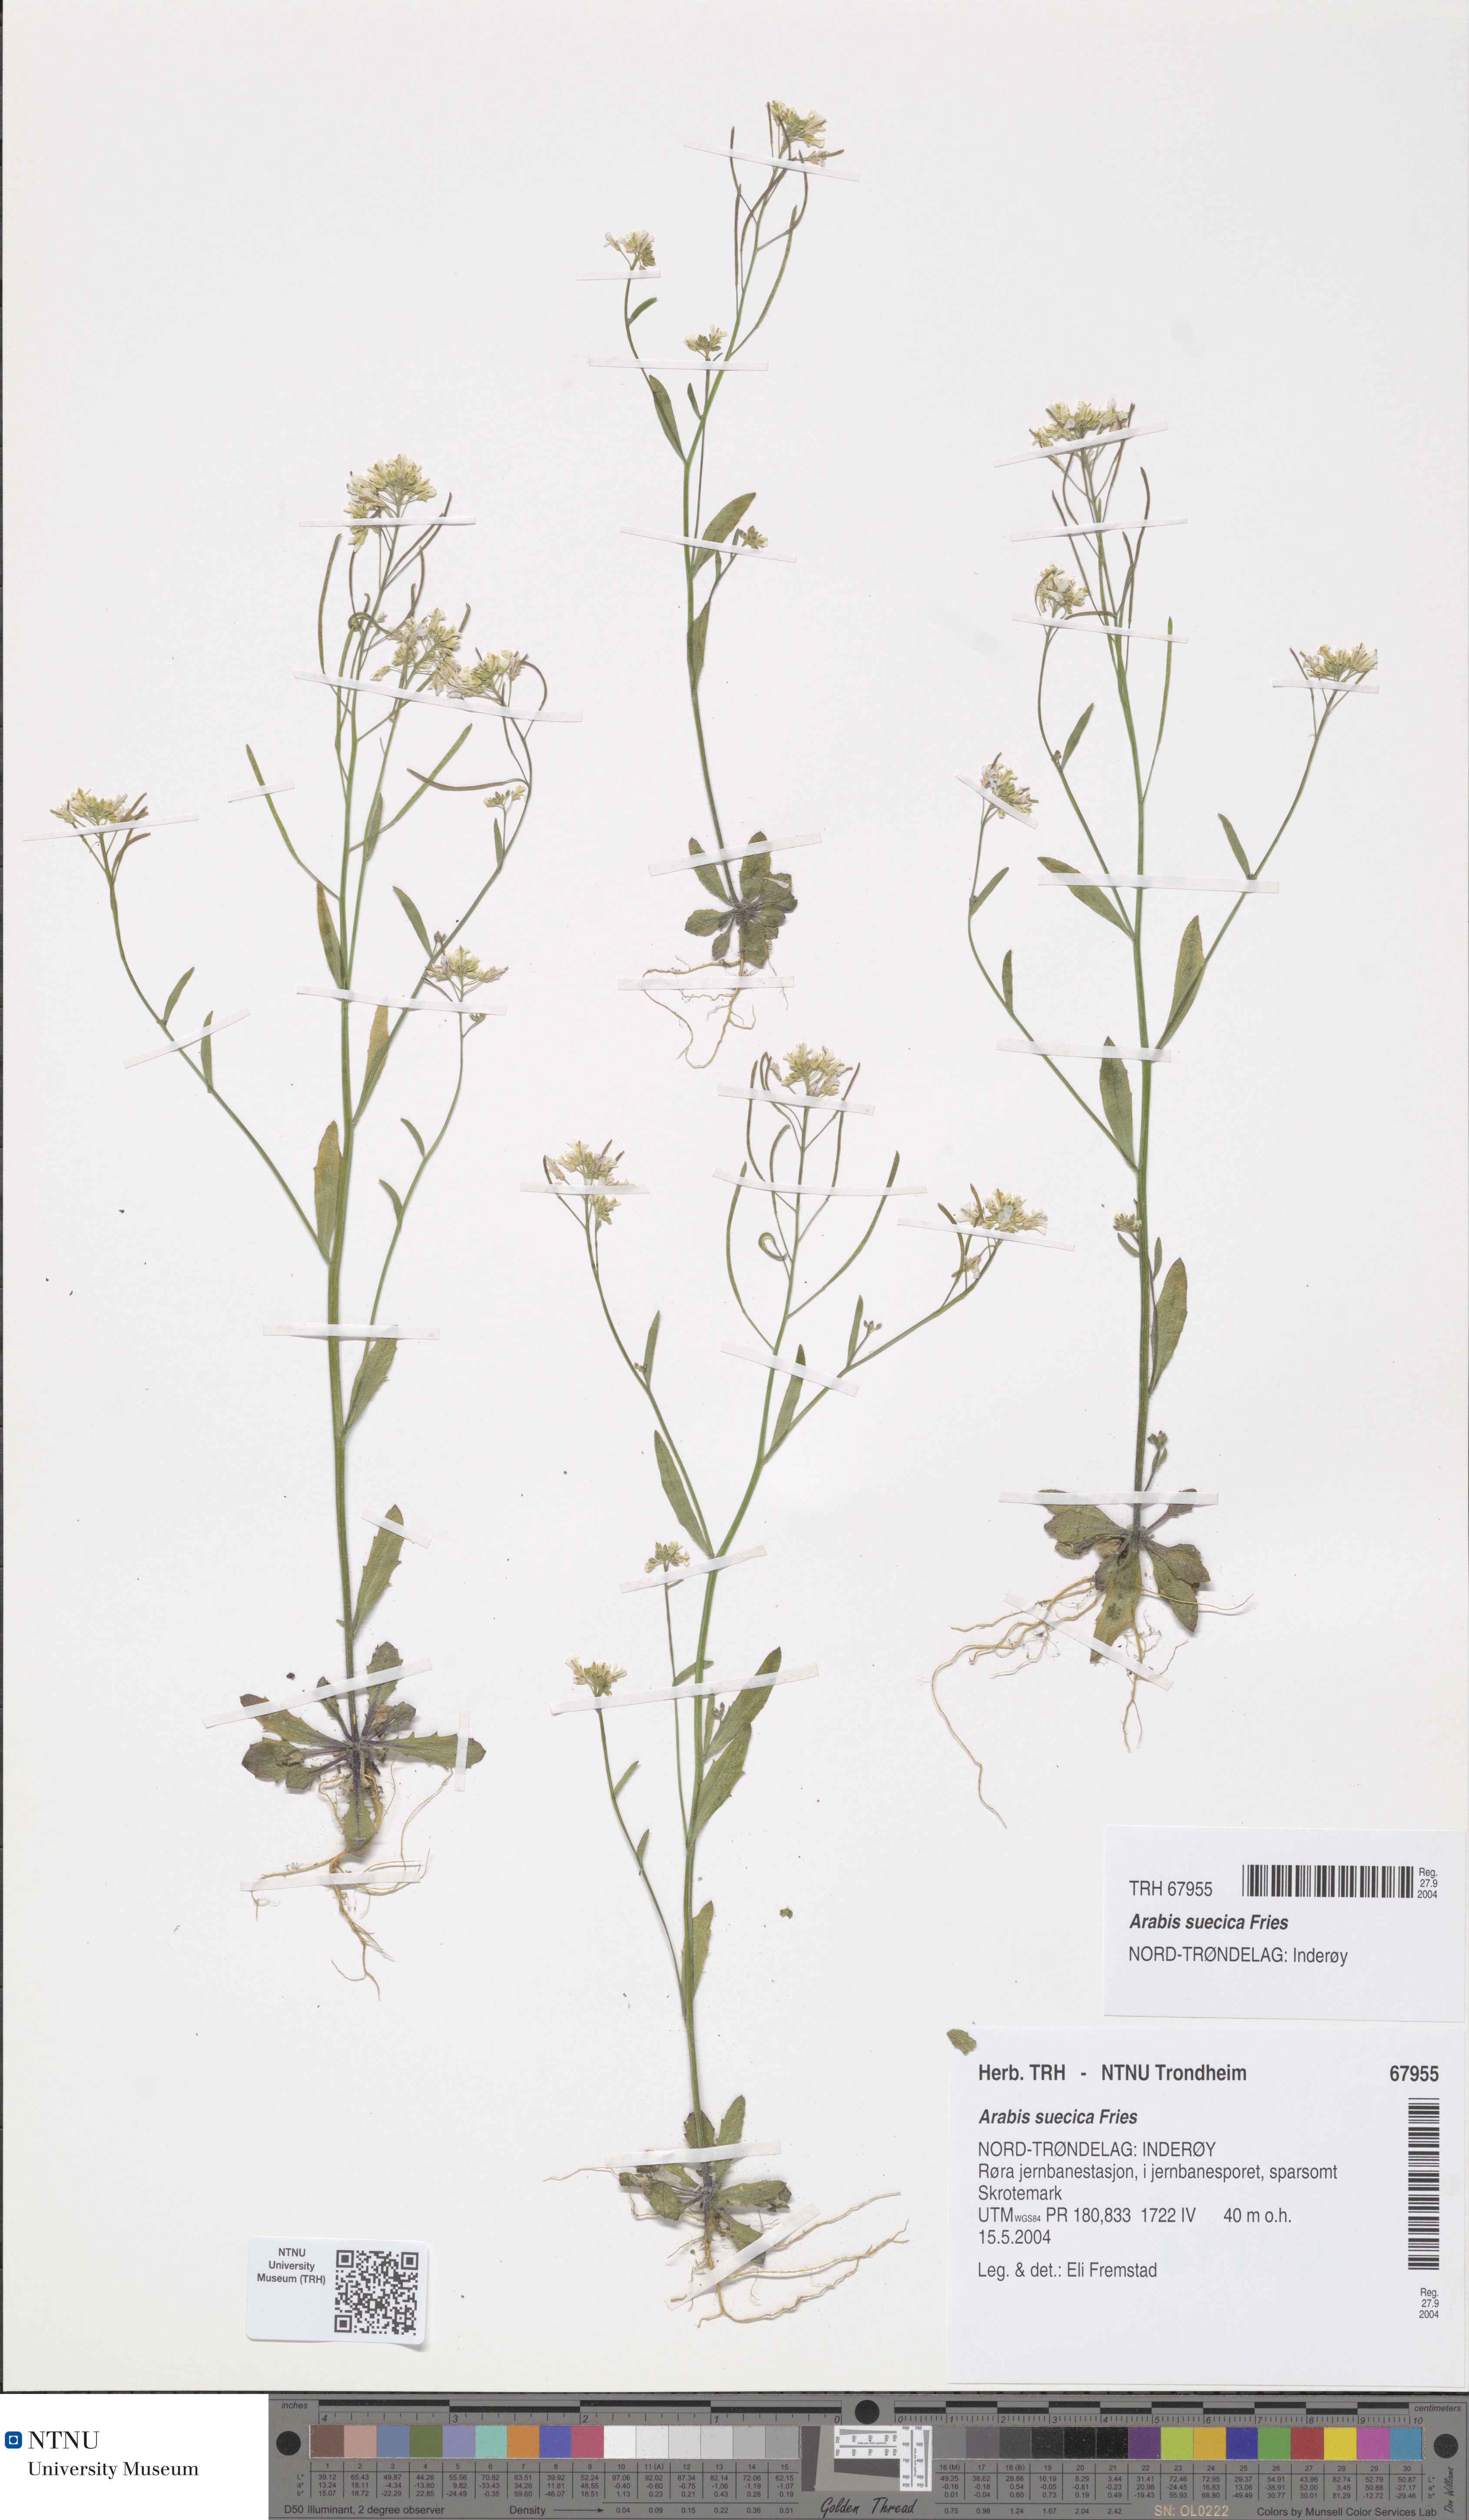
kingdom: Plantae
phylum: Tracheophyta
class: Magnoliopsida
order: Brassicales
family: Brassicaceae
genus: Arabidopsis
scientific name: Arabidopsis suecica
